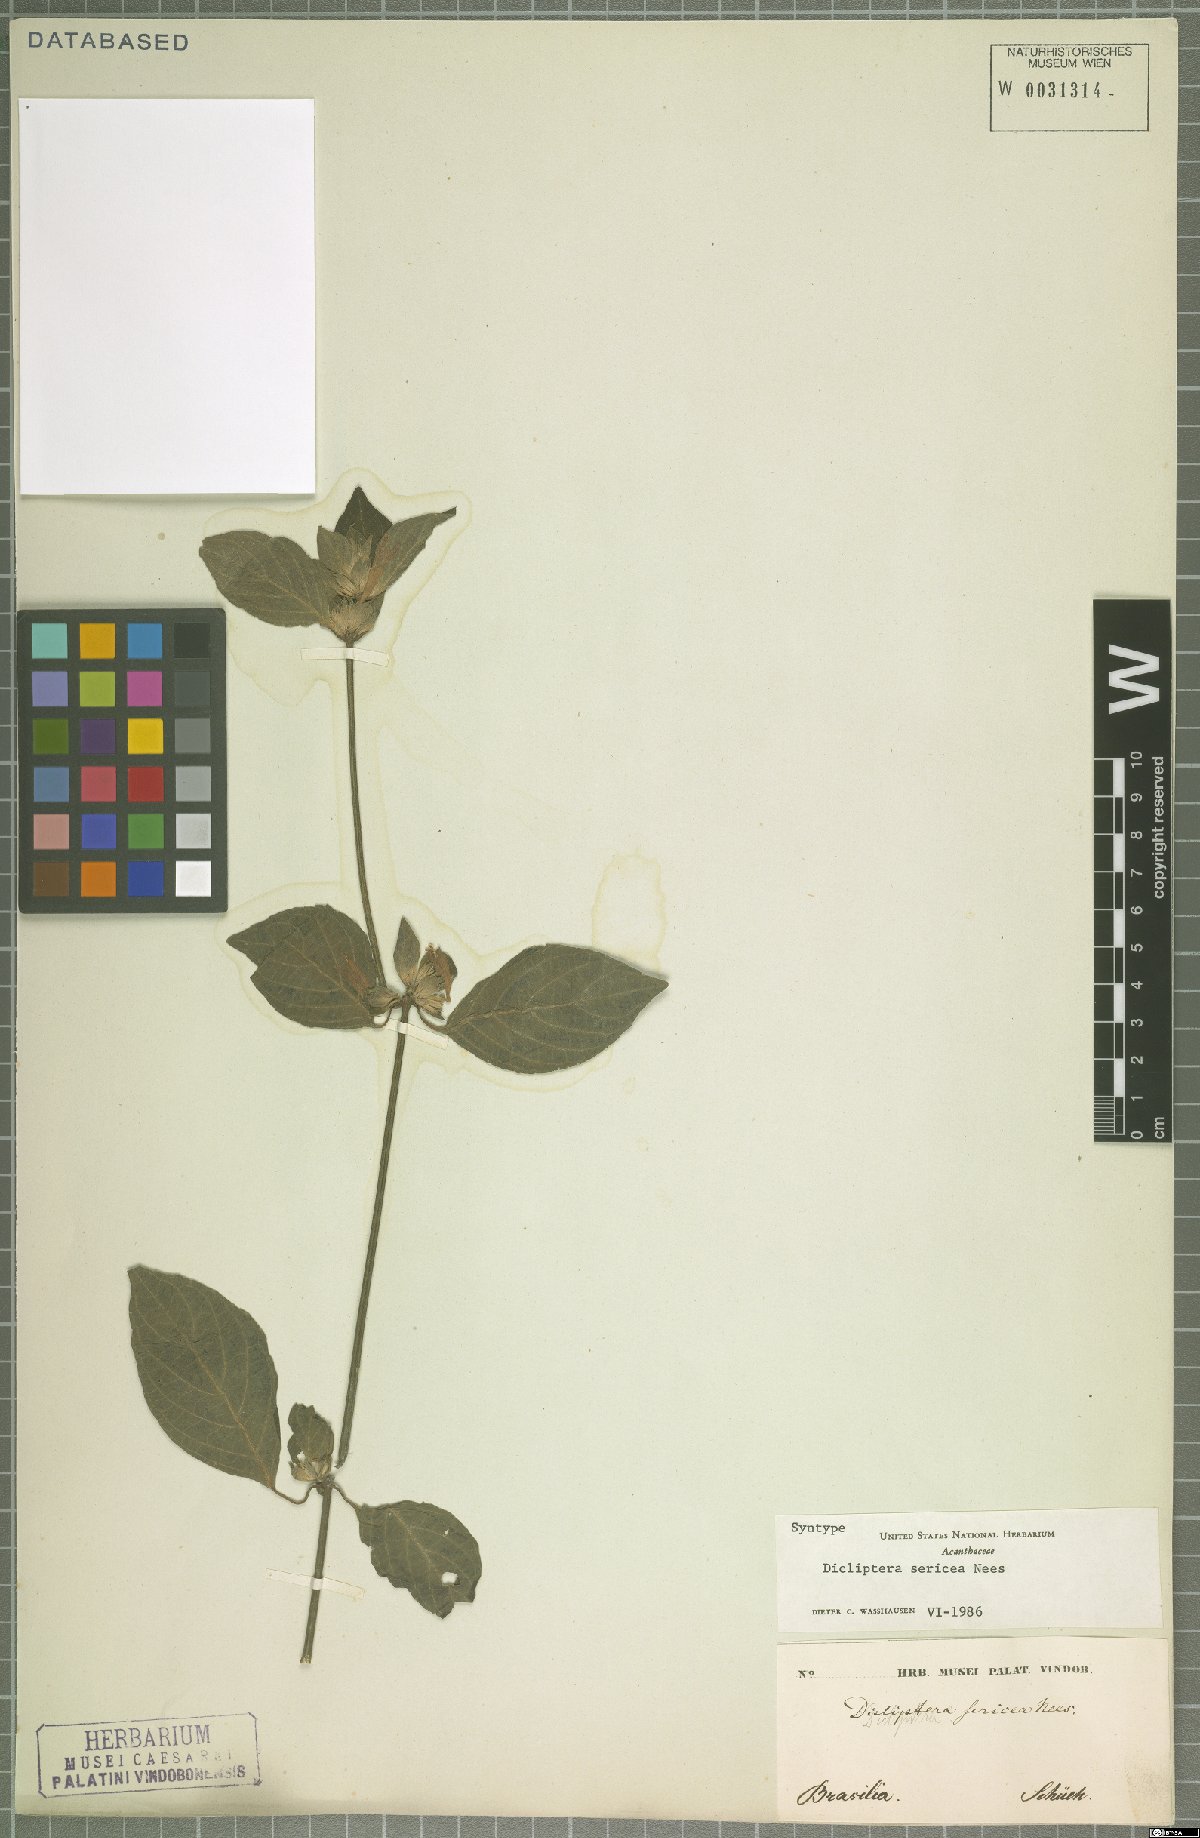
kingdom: Plantae
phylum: Tracheophyta
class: Magnoliopsida
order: Lamiales
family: Acanthaceae
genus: Dicliptera
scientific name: Dicliptera squarrosa
